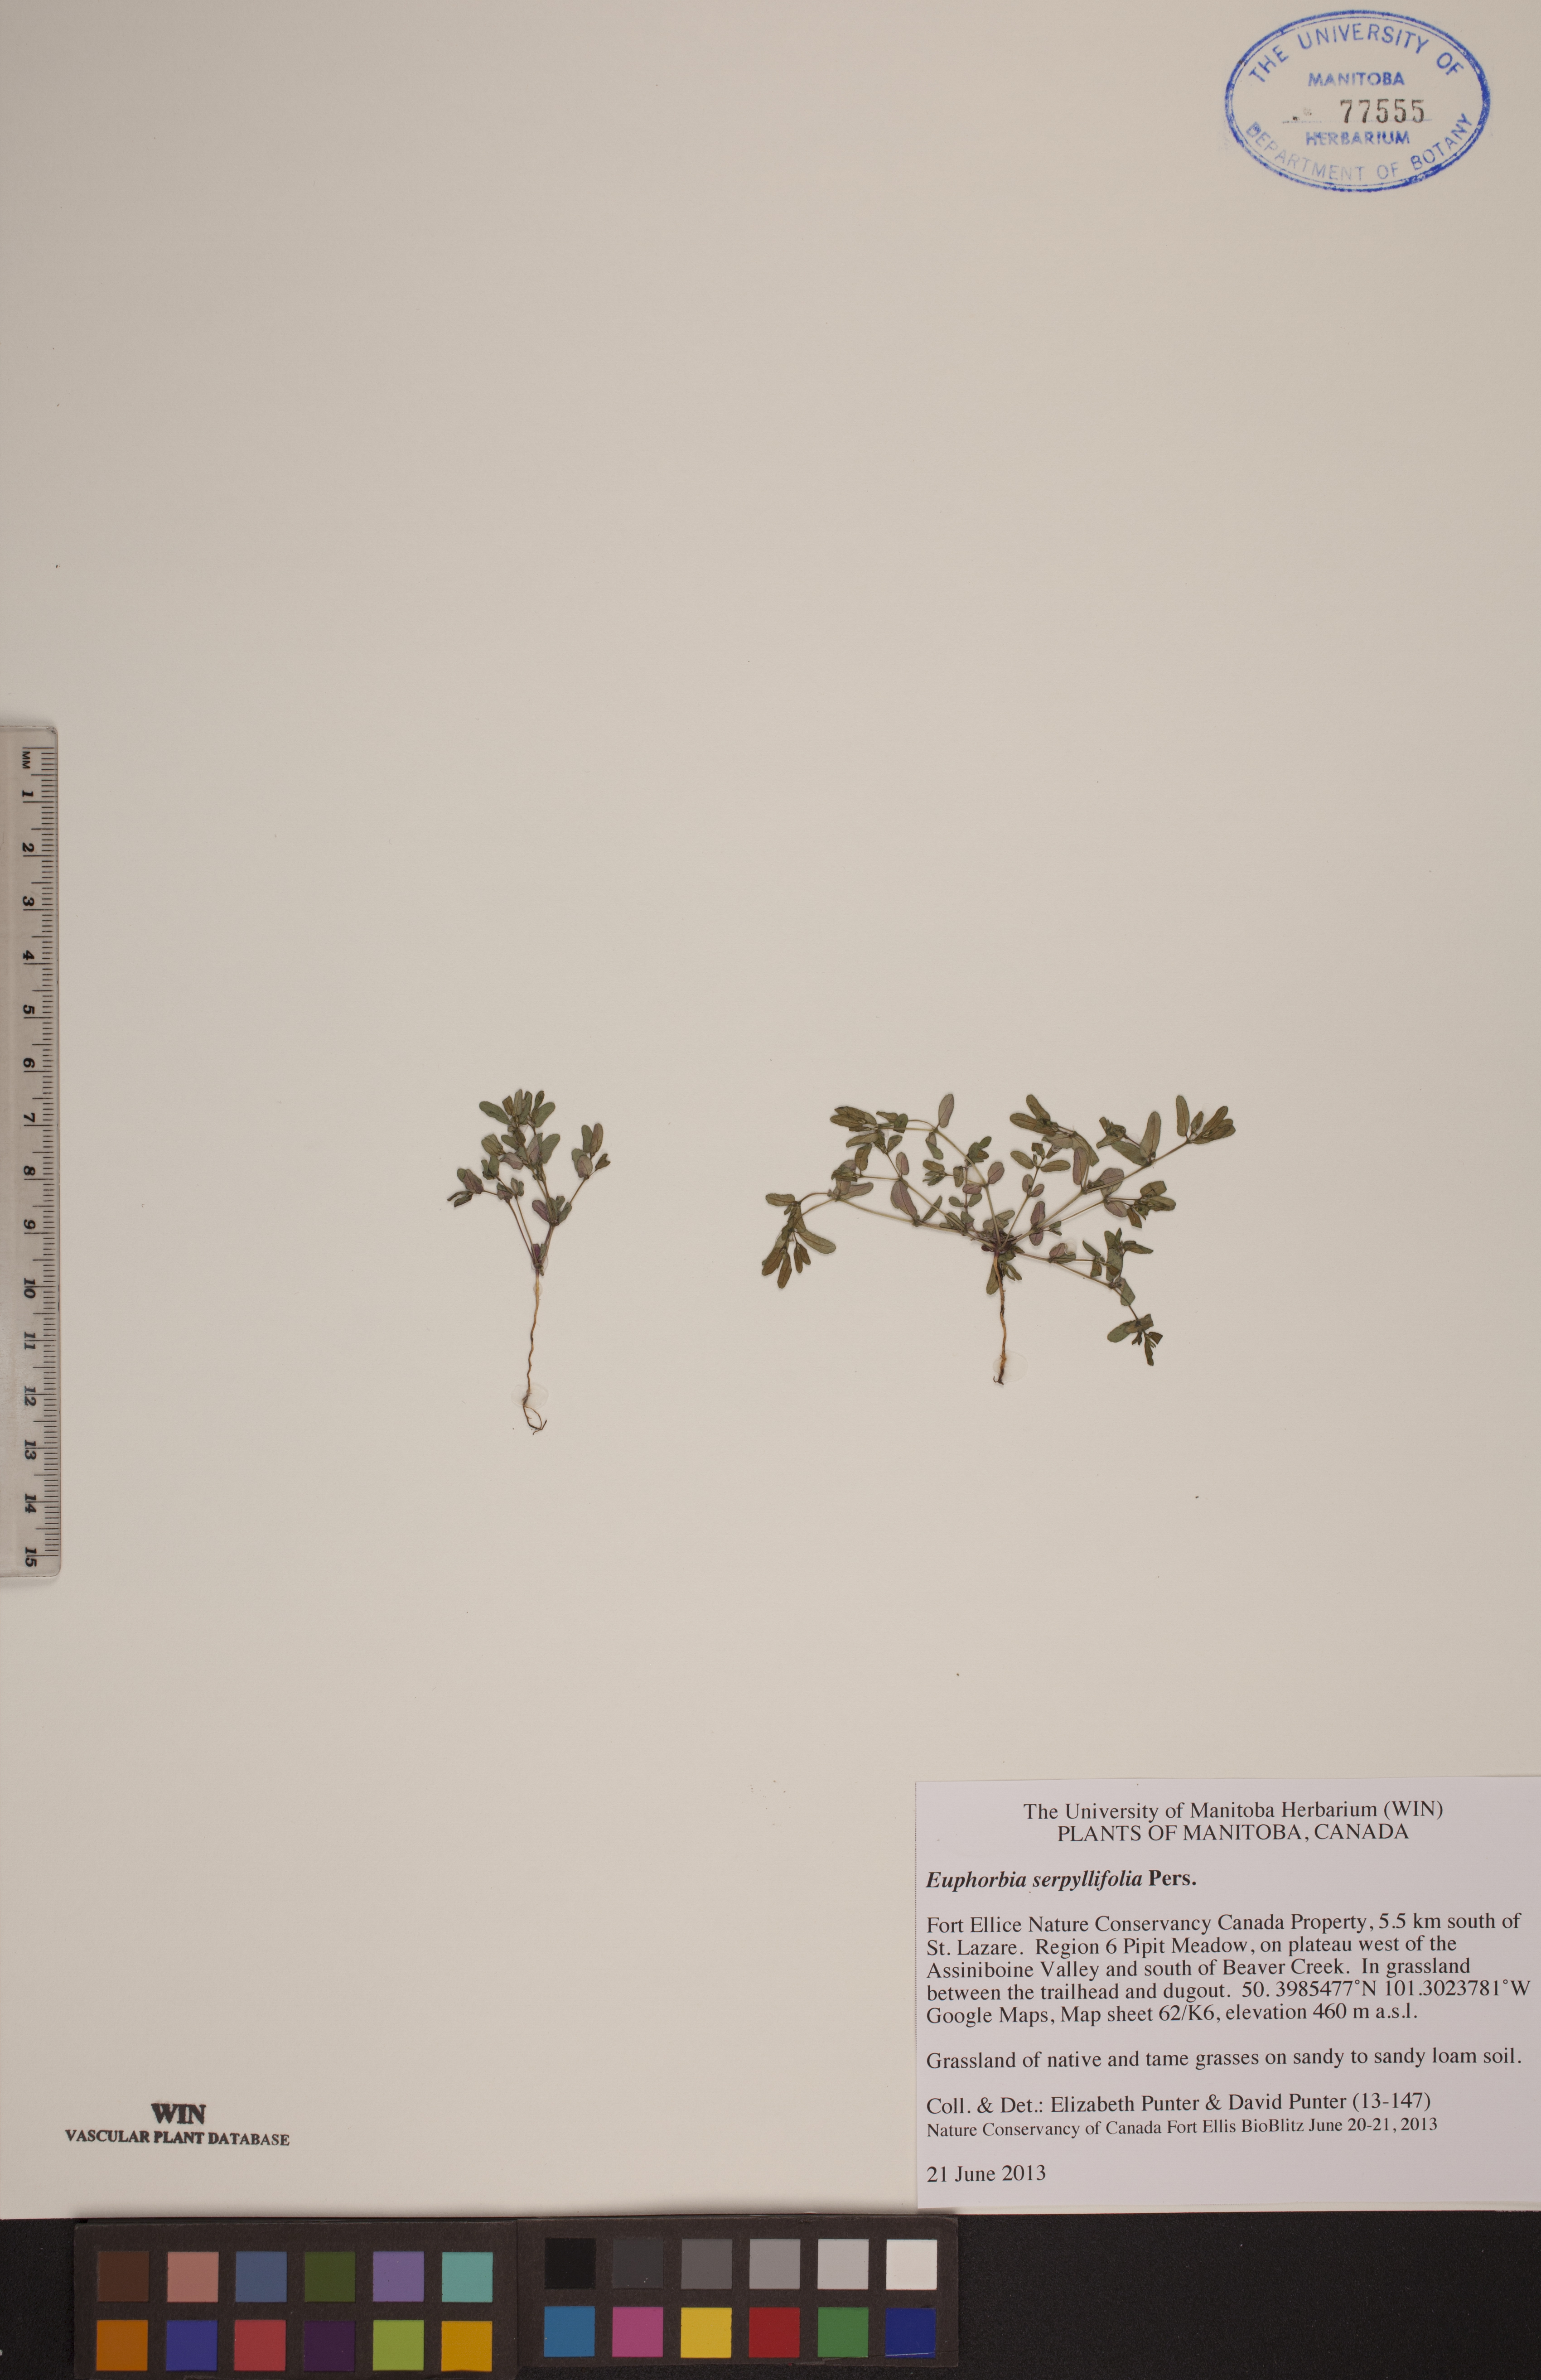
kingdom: Plantae
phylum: Tracheophyta
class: Magnoliopsida
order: Malpighiales
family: Euphorbiaceae
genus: Euphorbia
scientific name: Euphorbia serpillifolia
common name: Thyme-leaf spurge
